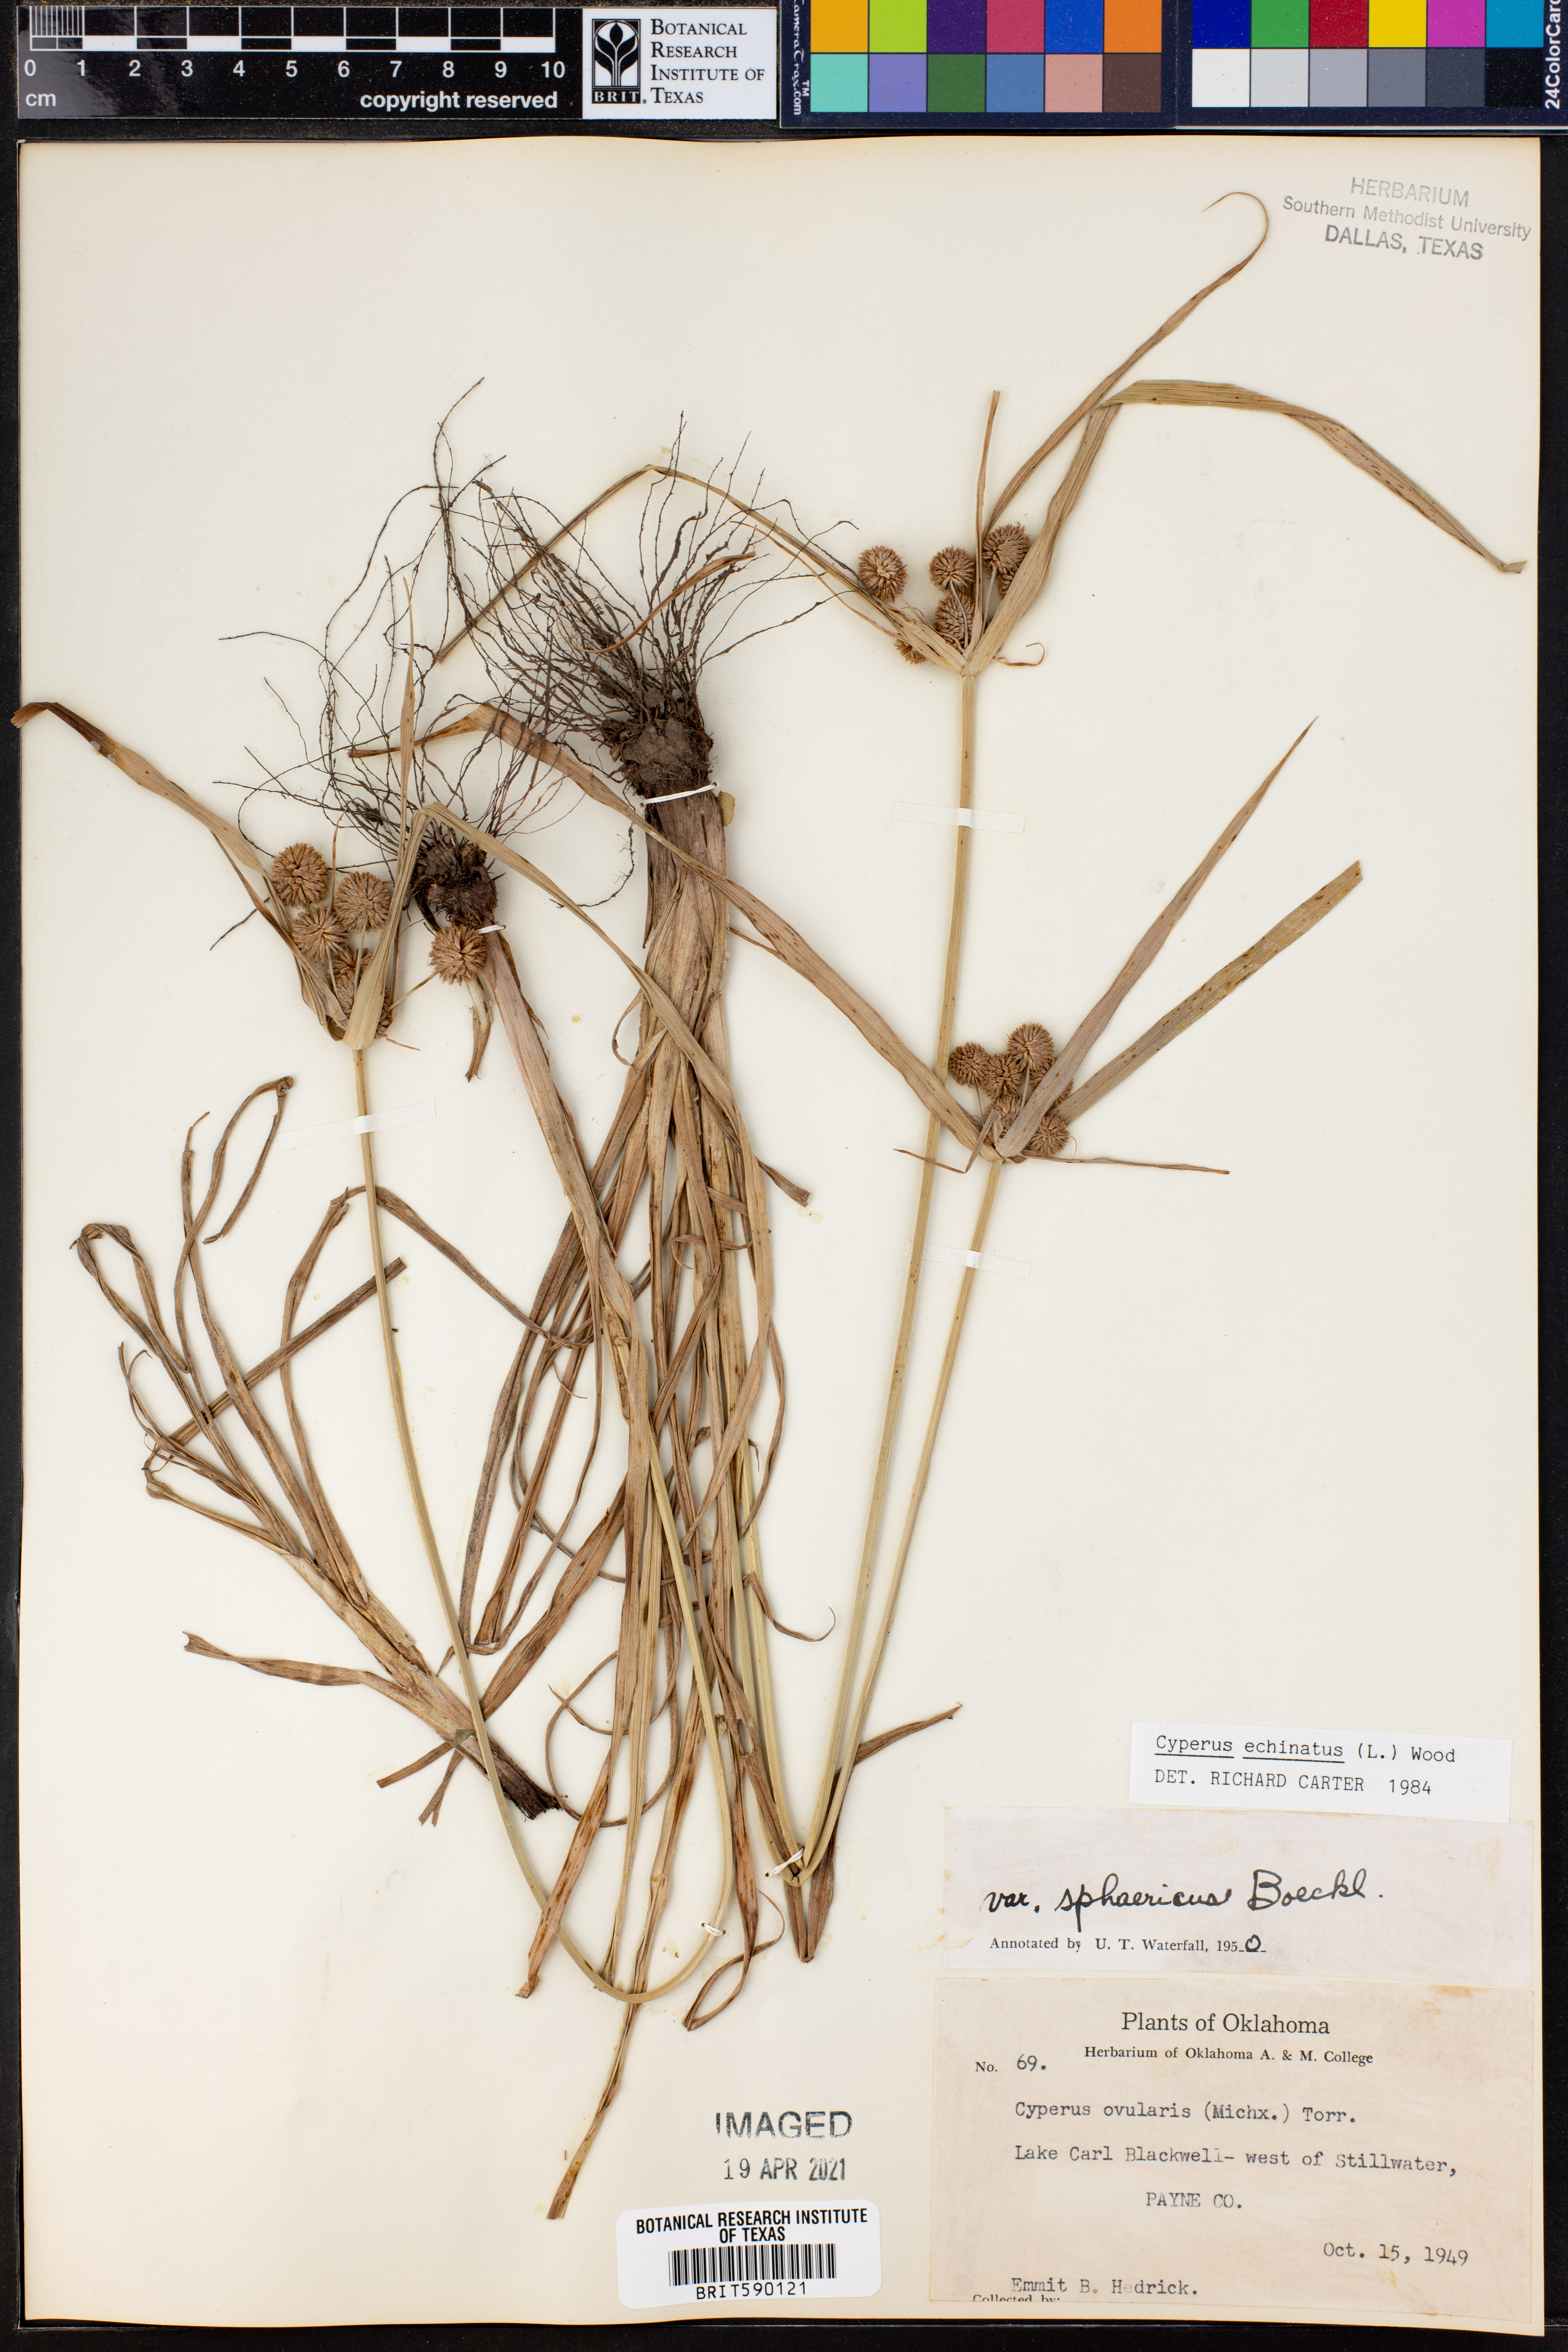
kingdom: Plantae
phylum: Tracheophyta
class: Liliopsida
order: Poales
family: Cyperaceae
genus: Cyperus
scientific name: Cyperus echinatus
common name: Teasel sedge
